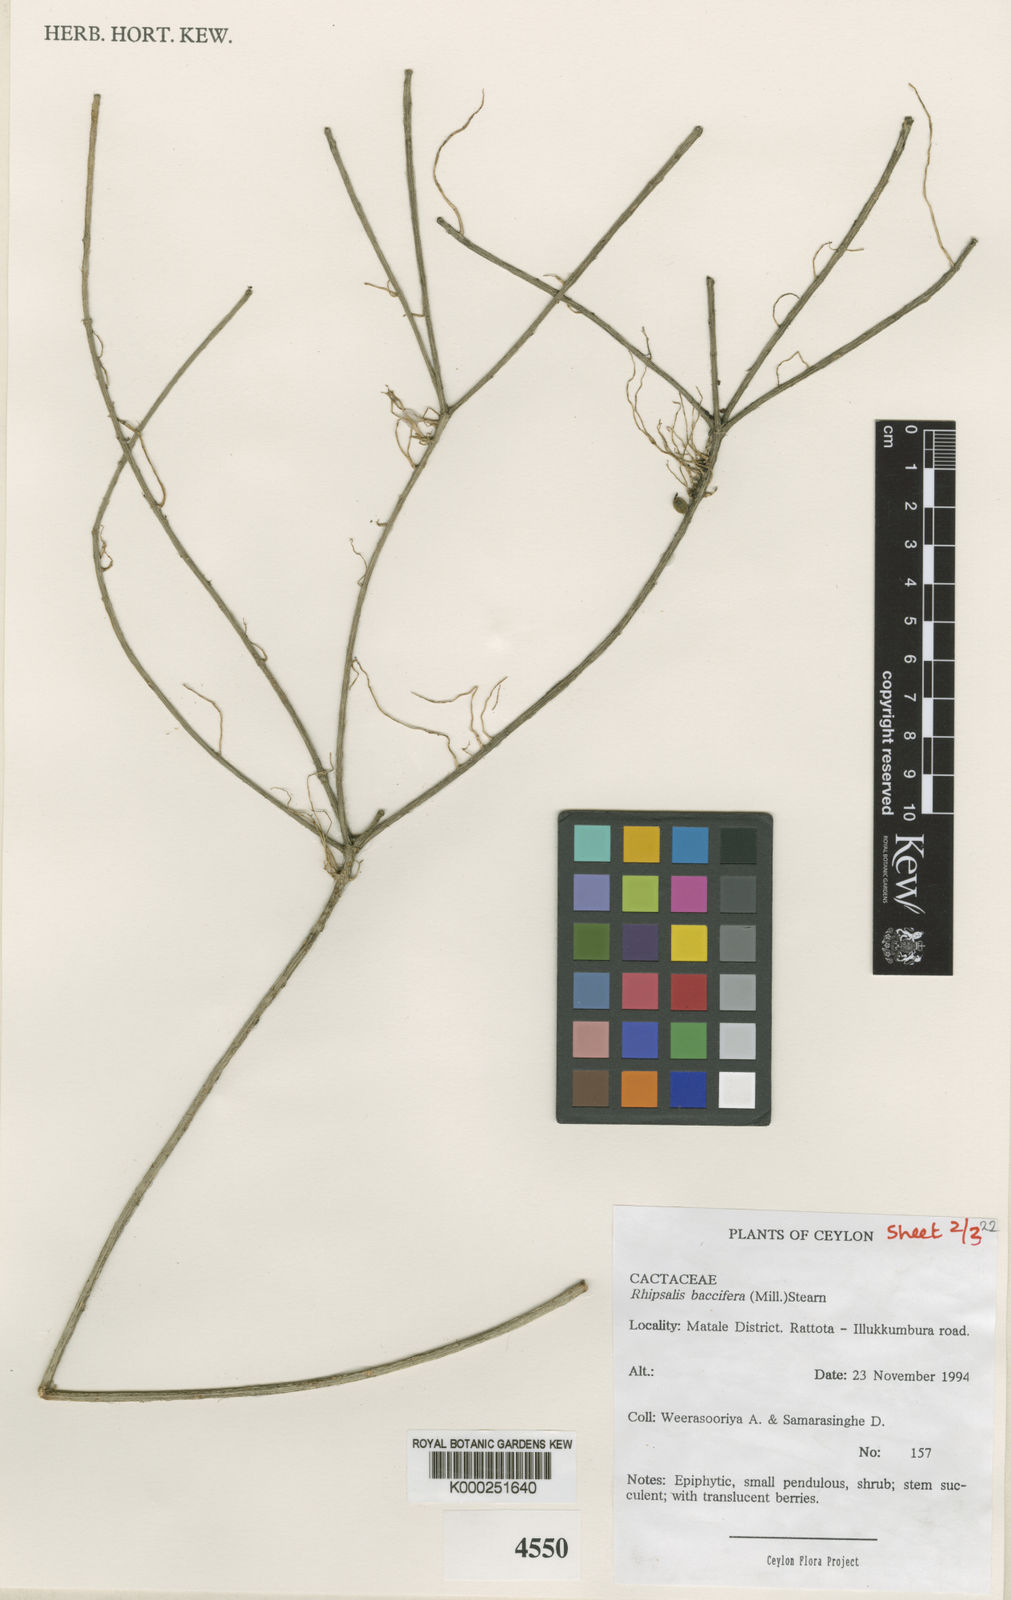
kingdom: Plantae
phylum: Tracheophyta
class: Magnoliopsida
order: Caryophyllales
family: Cactaceae
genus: Rhipsalis
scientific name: Rhipsalis baccifera
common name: Mistletoe cactus
